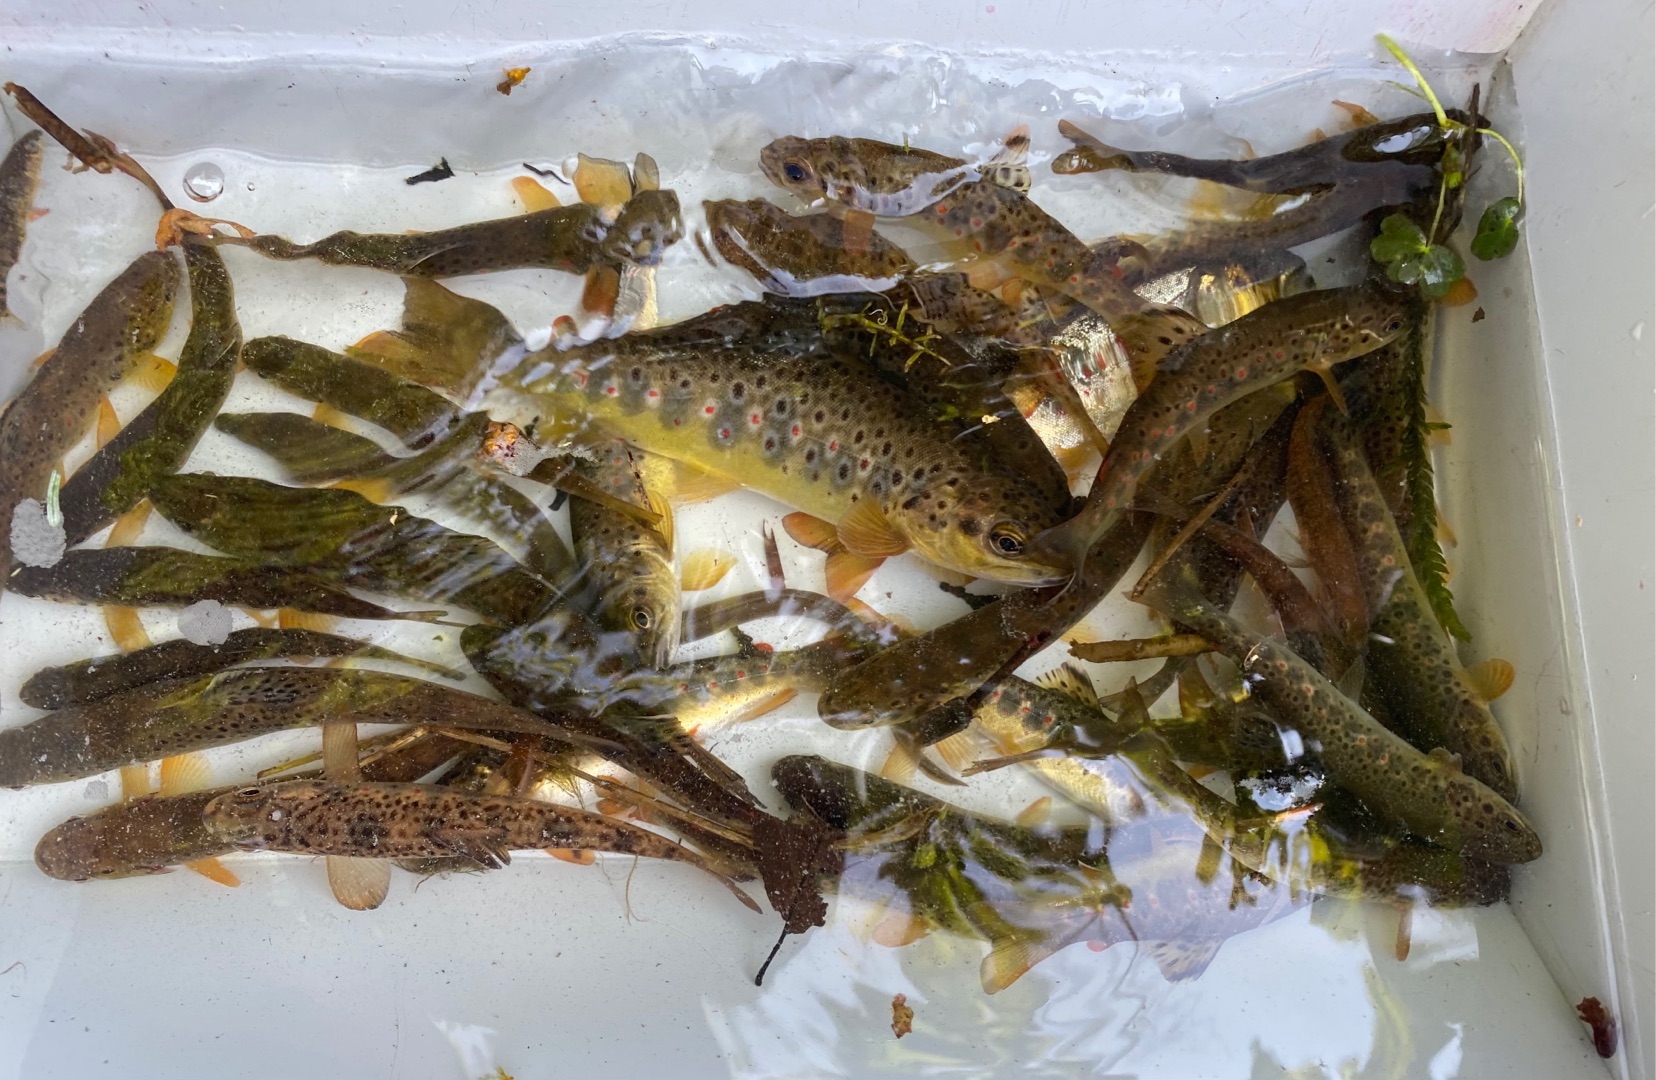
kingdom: Animalia
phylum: Chordata
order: Salmoniformes
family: Salmonidae
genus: Salmo
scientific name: Salmo trutta
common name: Ørred
